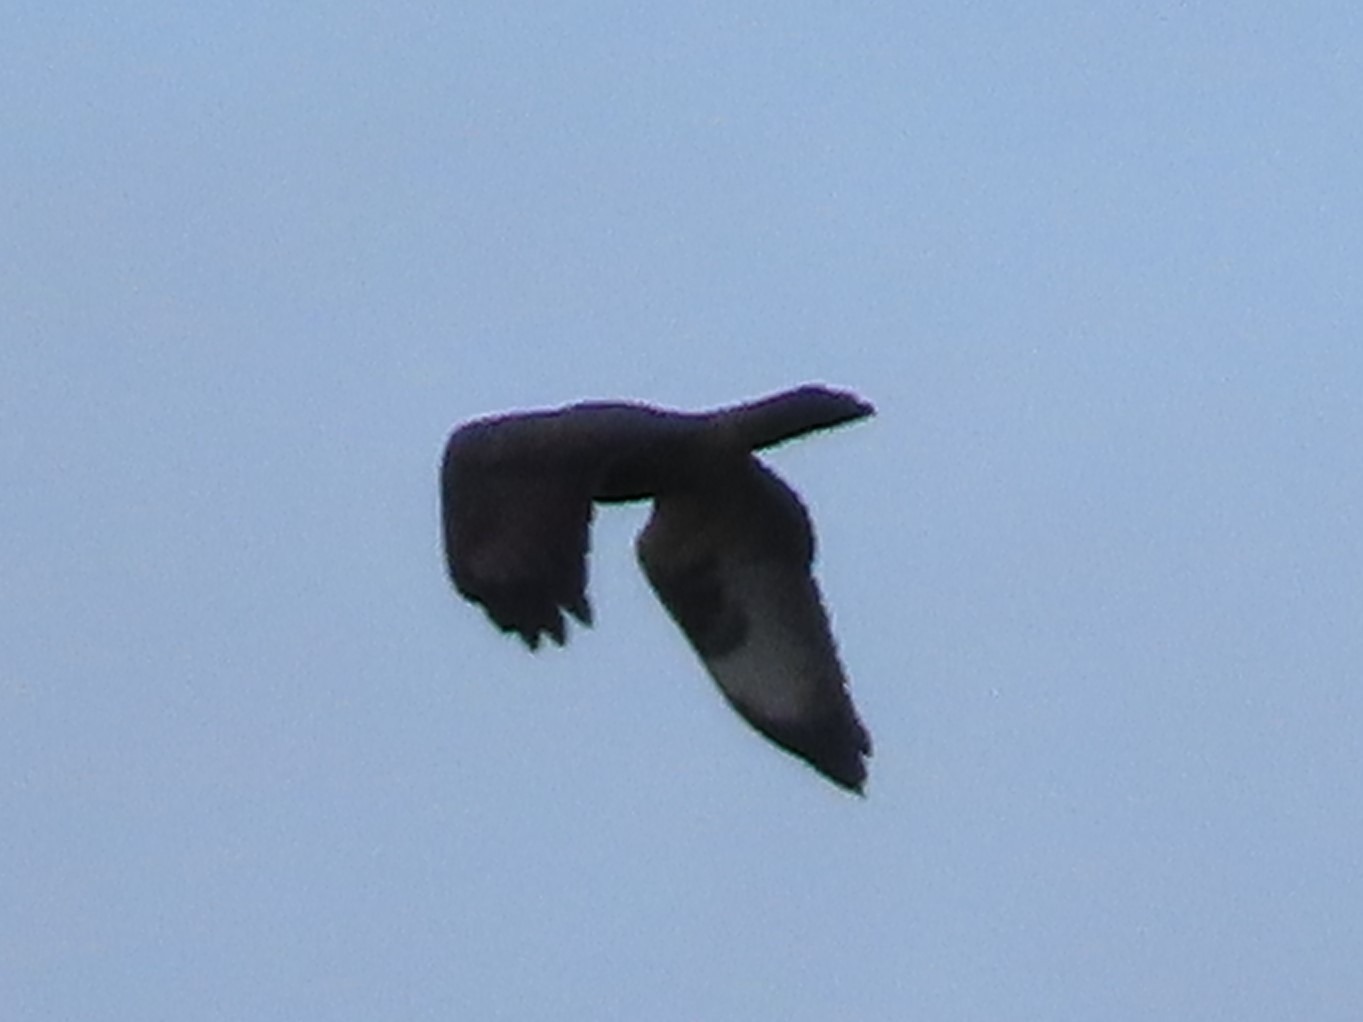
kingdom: Animalia
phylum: Chordata
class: Aves
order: Accipitriformes
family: Accipitridae
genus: Buteo
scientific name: Buteo buteo
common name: Musvåge
